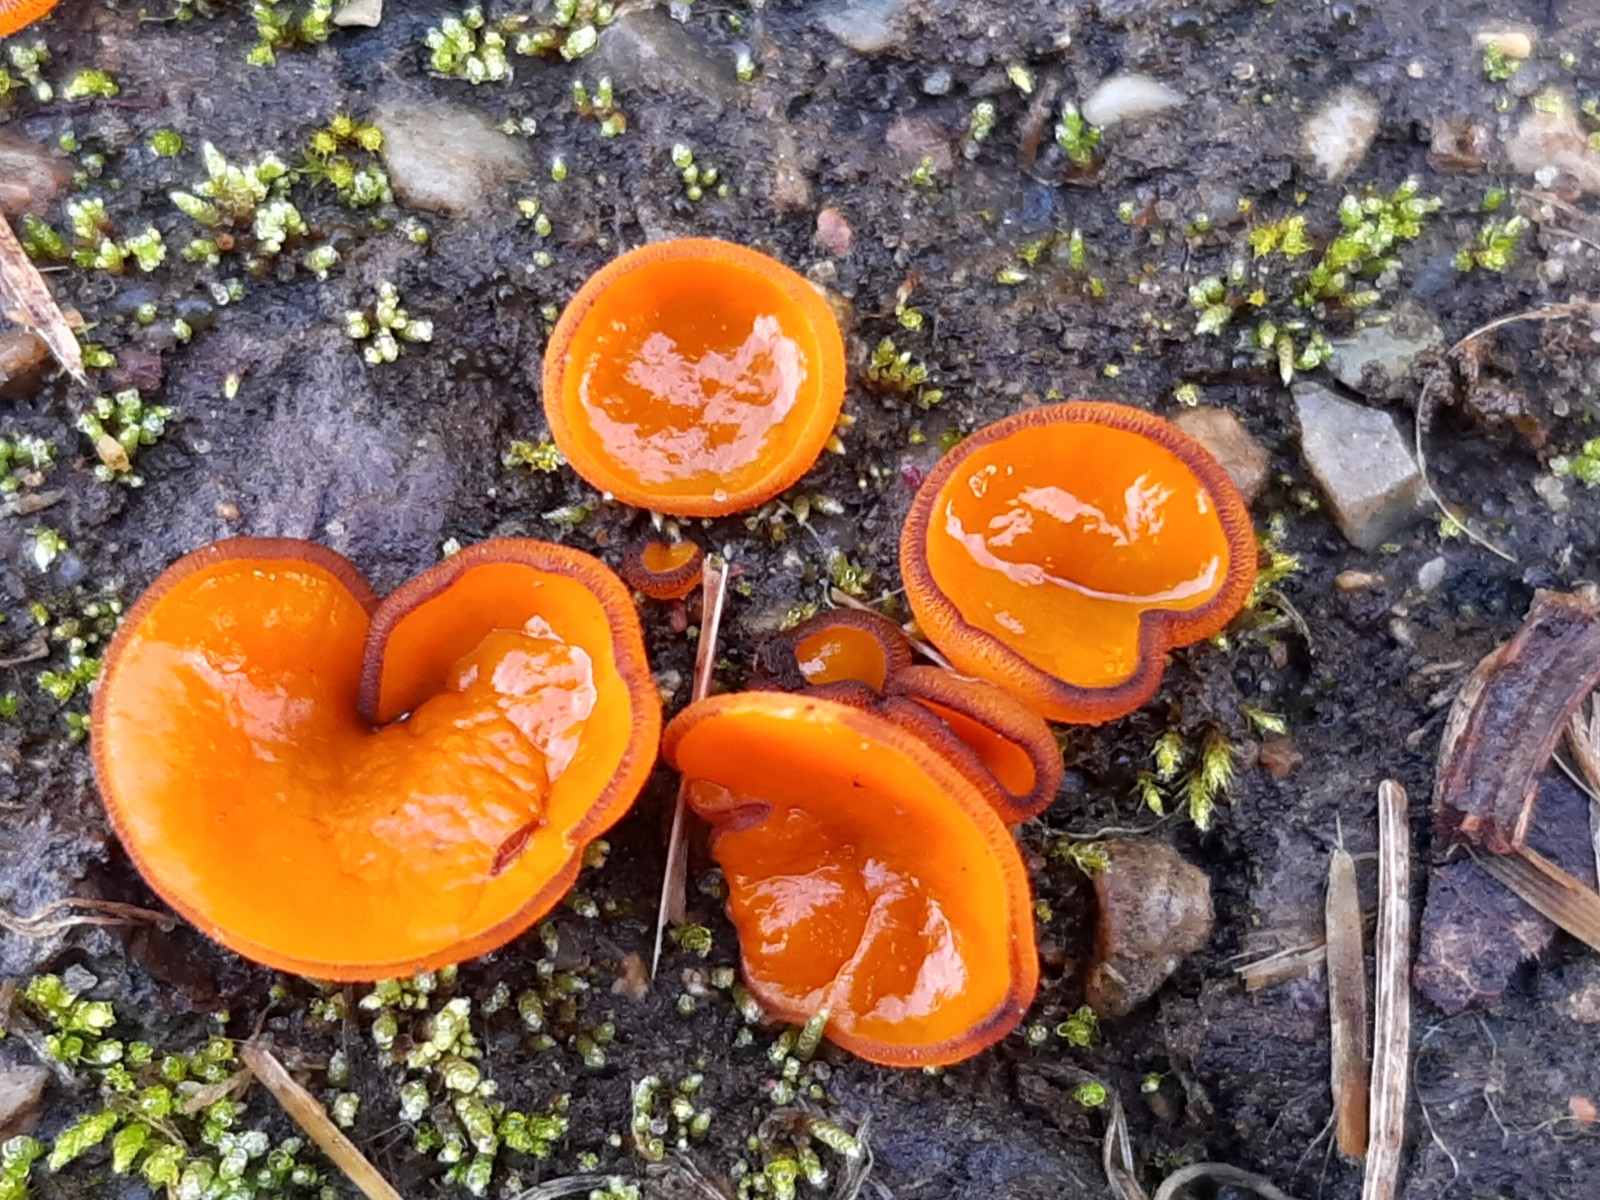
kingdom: Fungi
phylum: Ascomycota
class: Pezizomycetes
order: Pezizales
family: Pyronemataceae
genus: Melastiza
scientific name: Melastiza cornubiensis
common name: mørkrandet rødbæger
